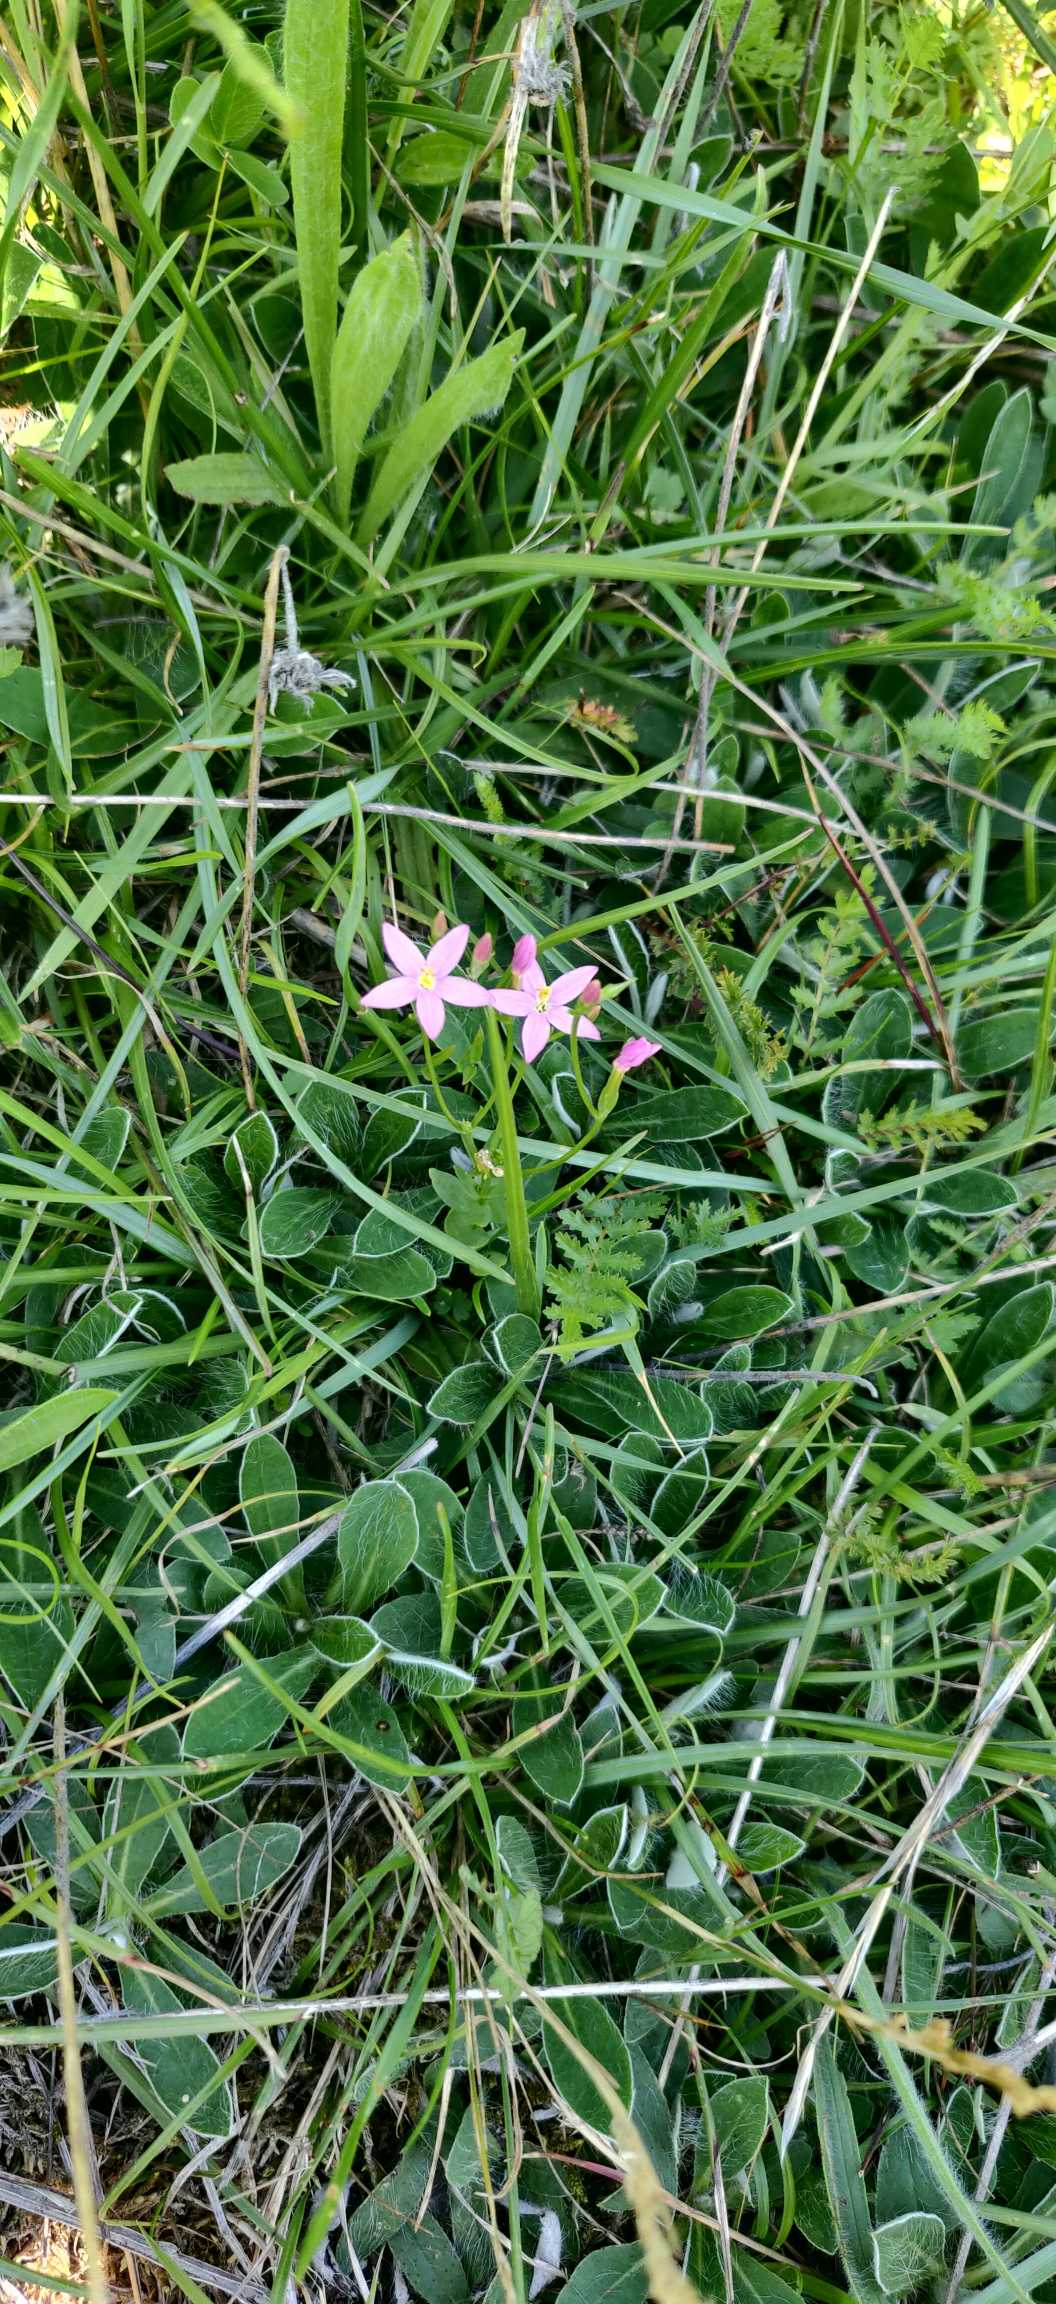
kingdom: Plantae
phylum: Tracheophyta
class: Magnoliopsida
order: Gentianales
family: Gentianaceae
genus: Centaurium
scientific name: Centaurium erythraea
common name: Mark-tusindgylden
